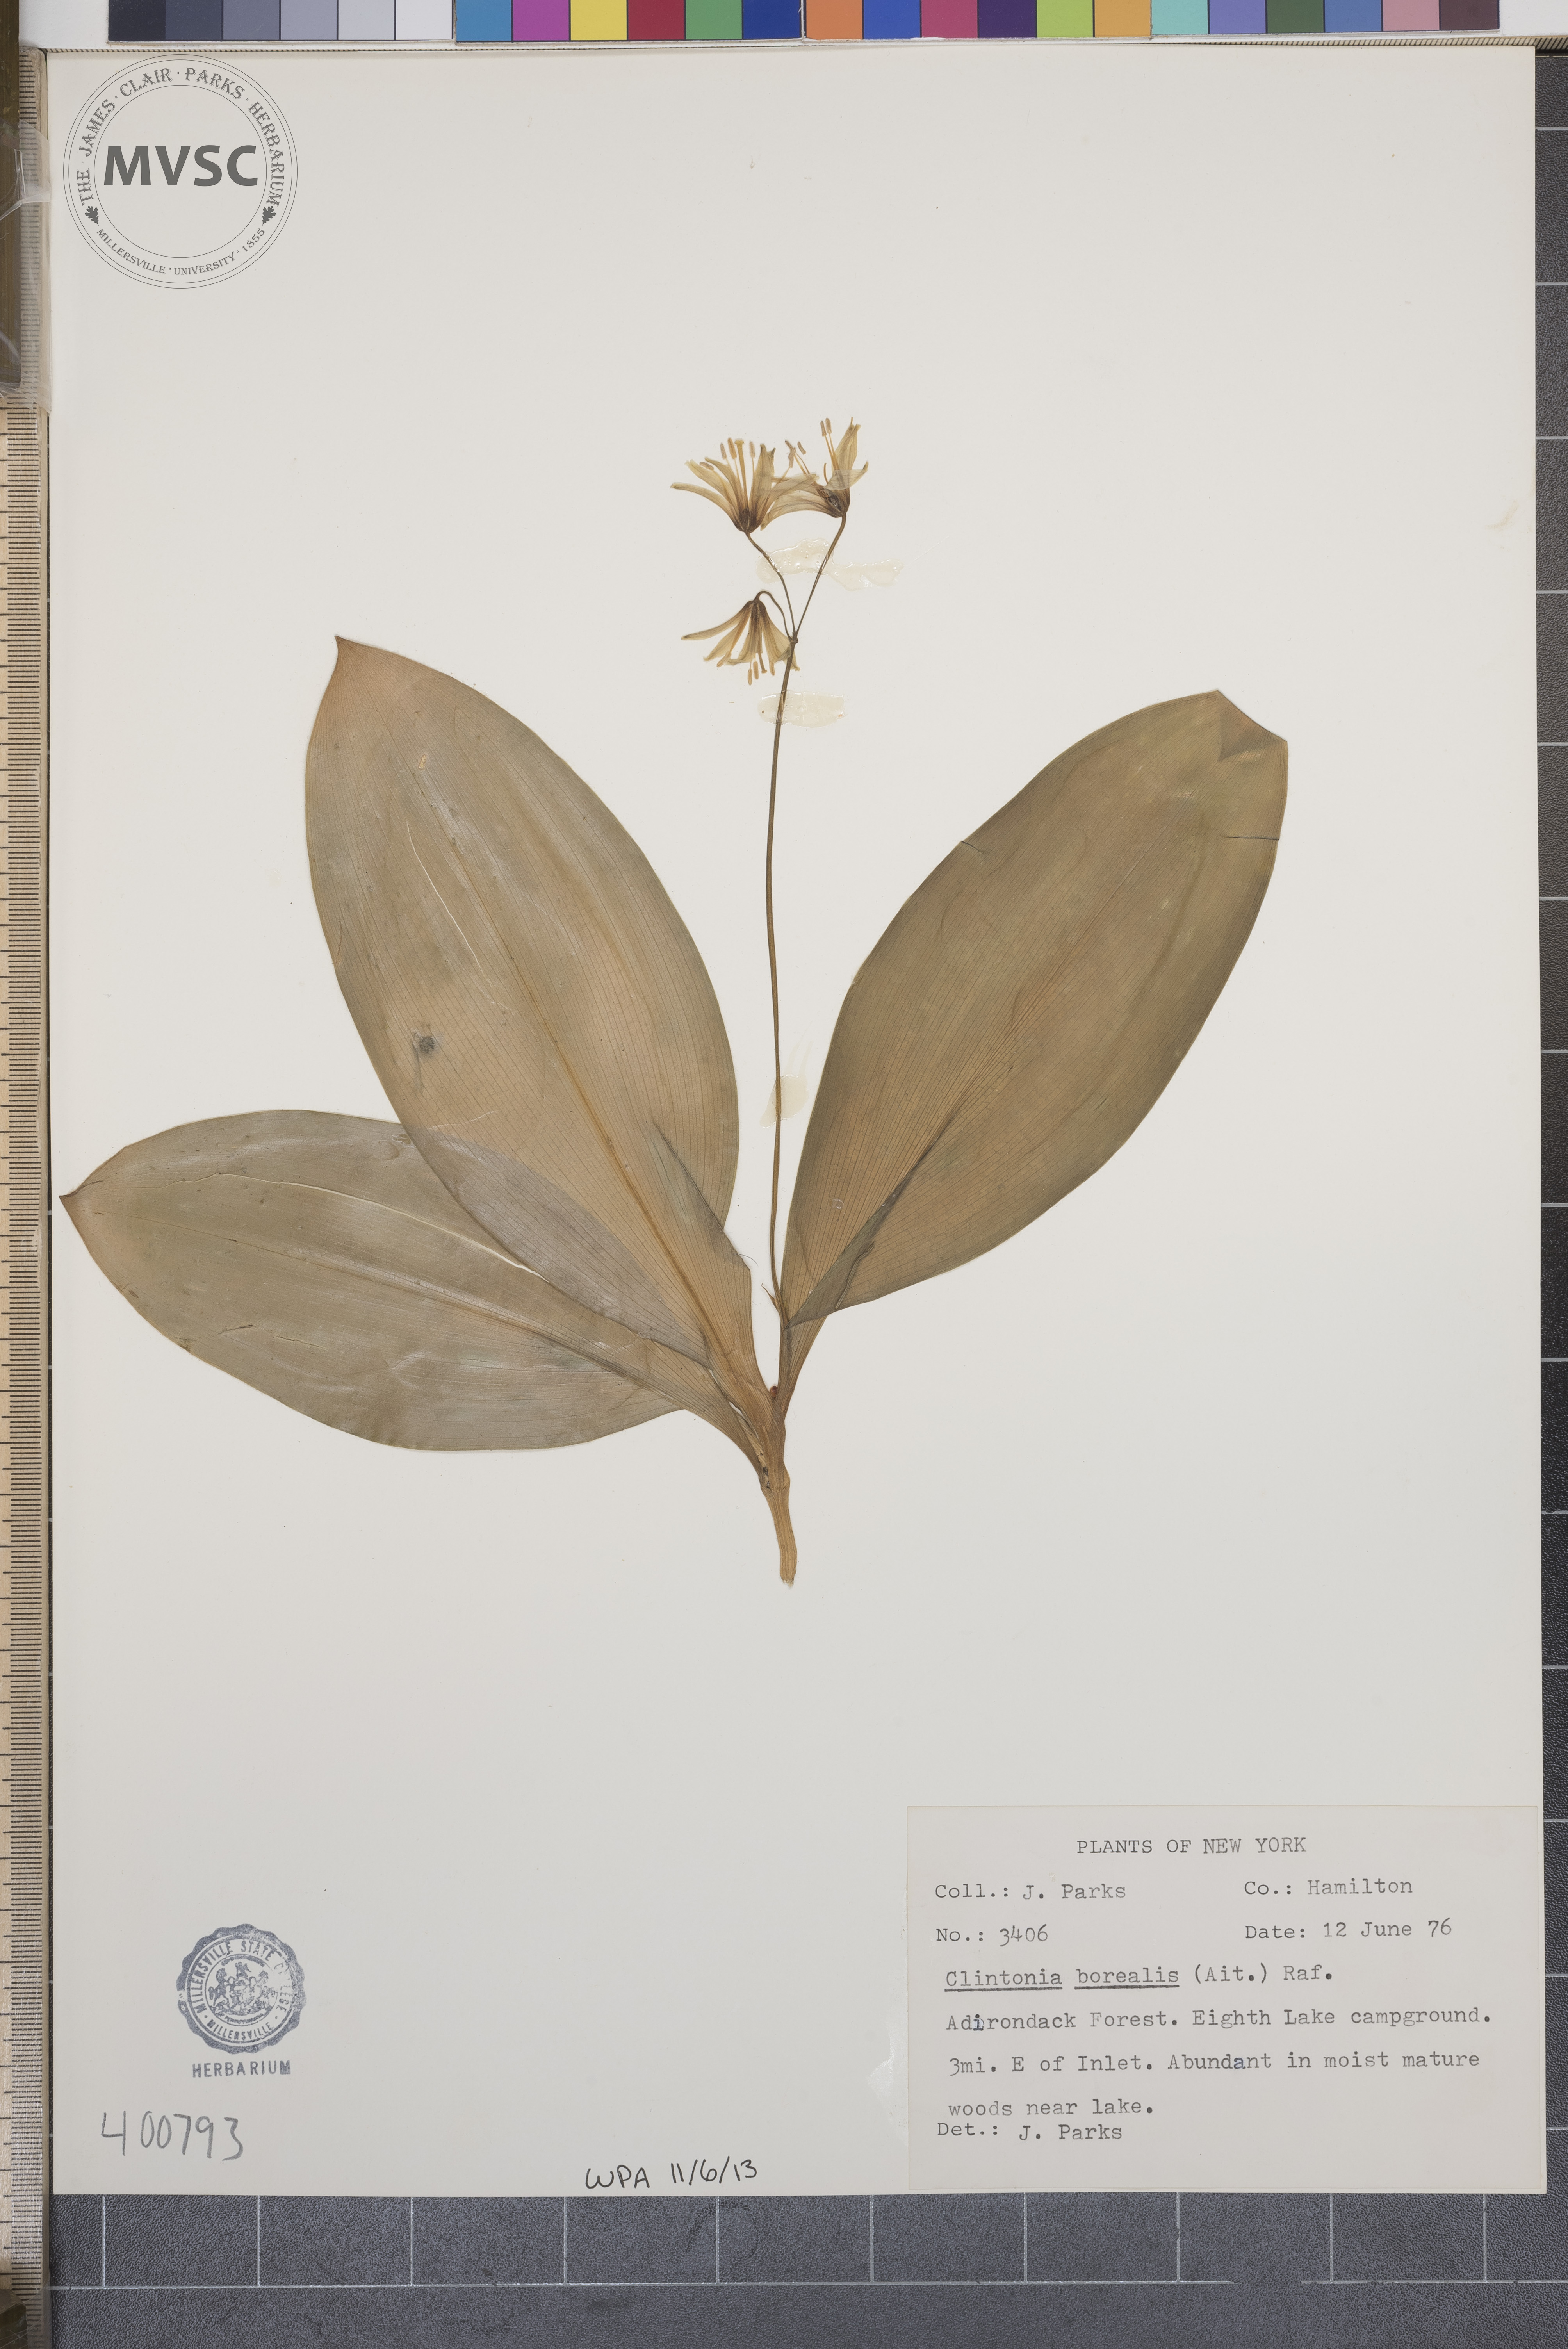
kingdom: Plantae
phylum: Tracheophyta
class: Liliopsida
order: Liliales
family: Liliaceae
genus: Clintonia
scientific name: Clintonia borealis
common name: Yellow clintonia
